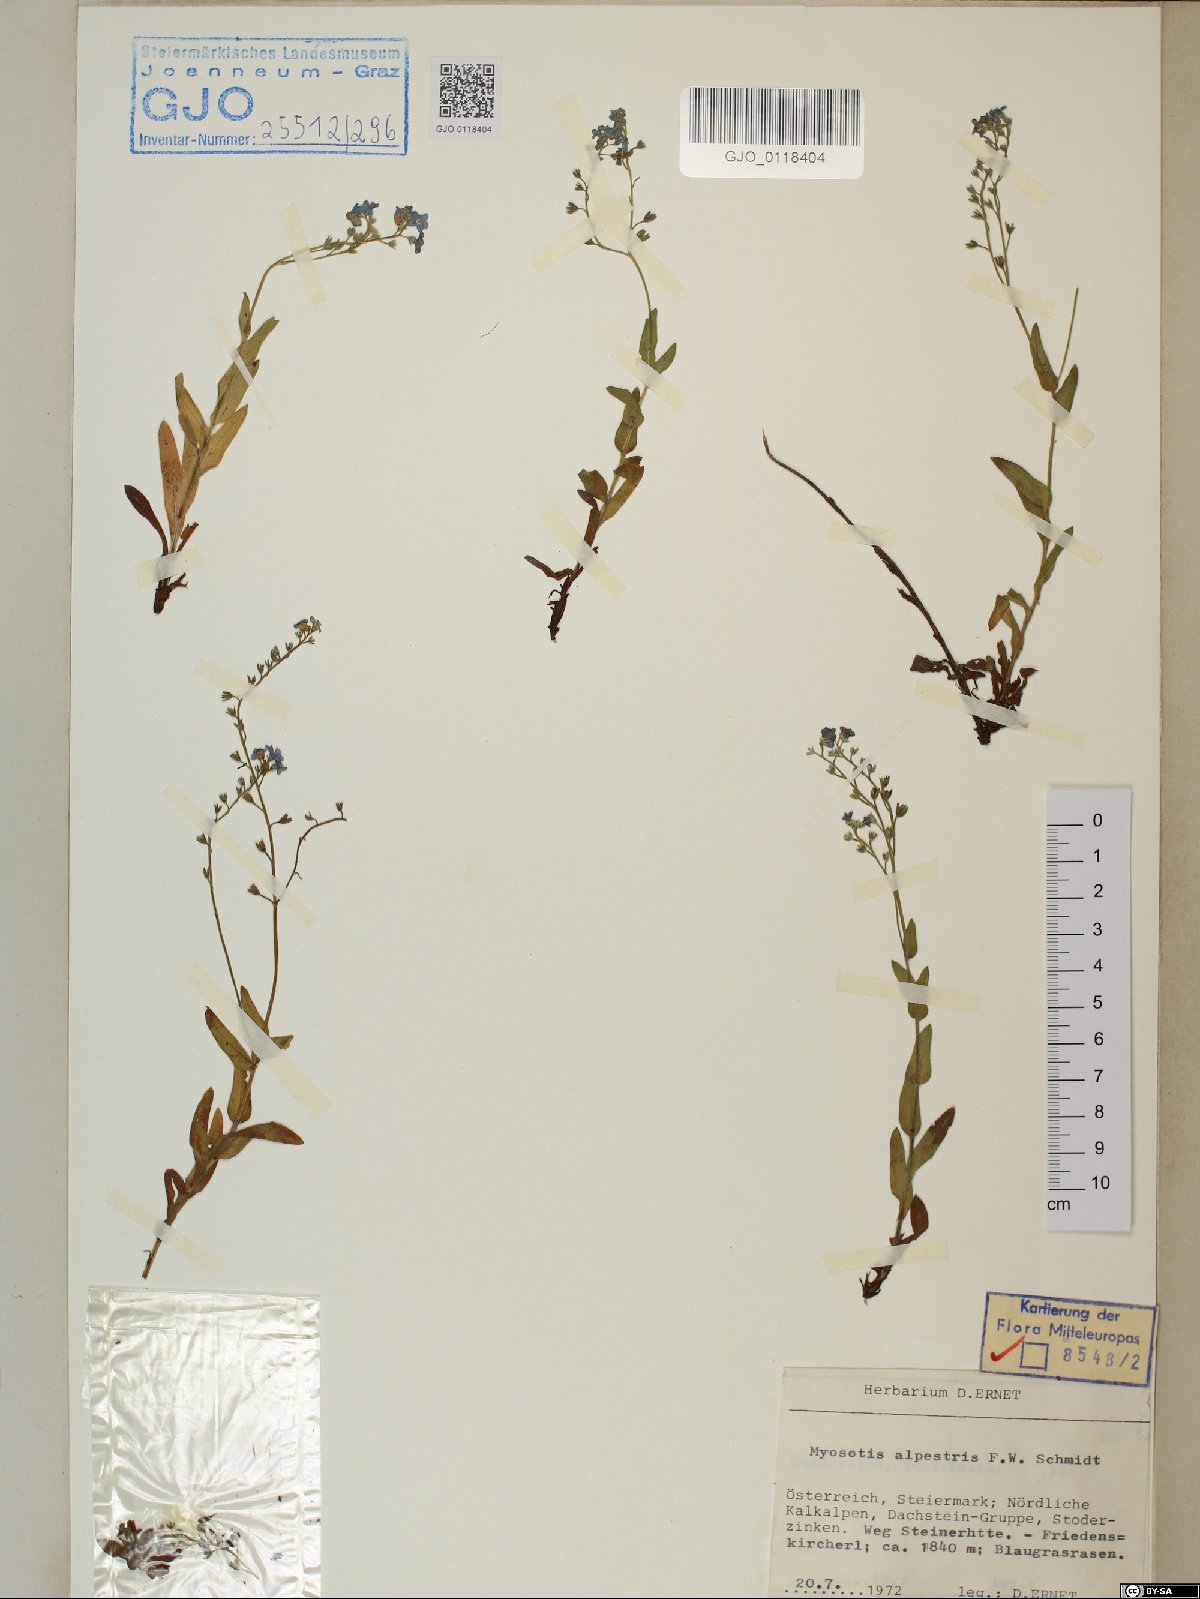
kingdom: Plantae
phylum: Tracheophyta
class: Magnoliopsida
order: Boraginales
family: Boraginaceae
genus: Myosotis
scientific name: Myosotis alpestris
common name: Alpine forget-me-not
